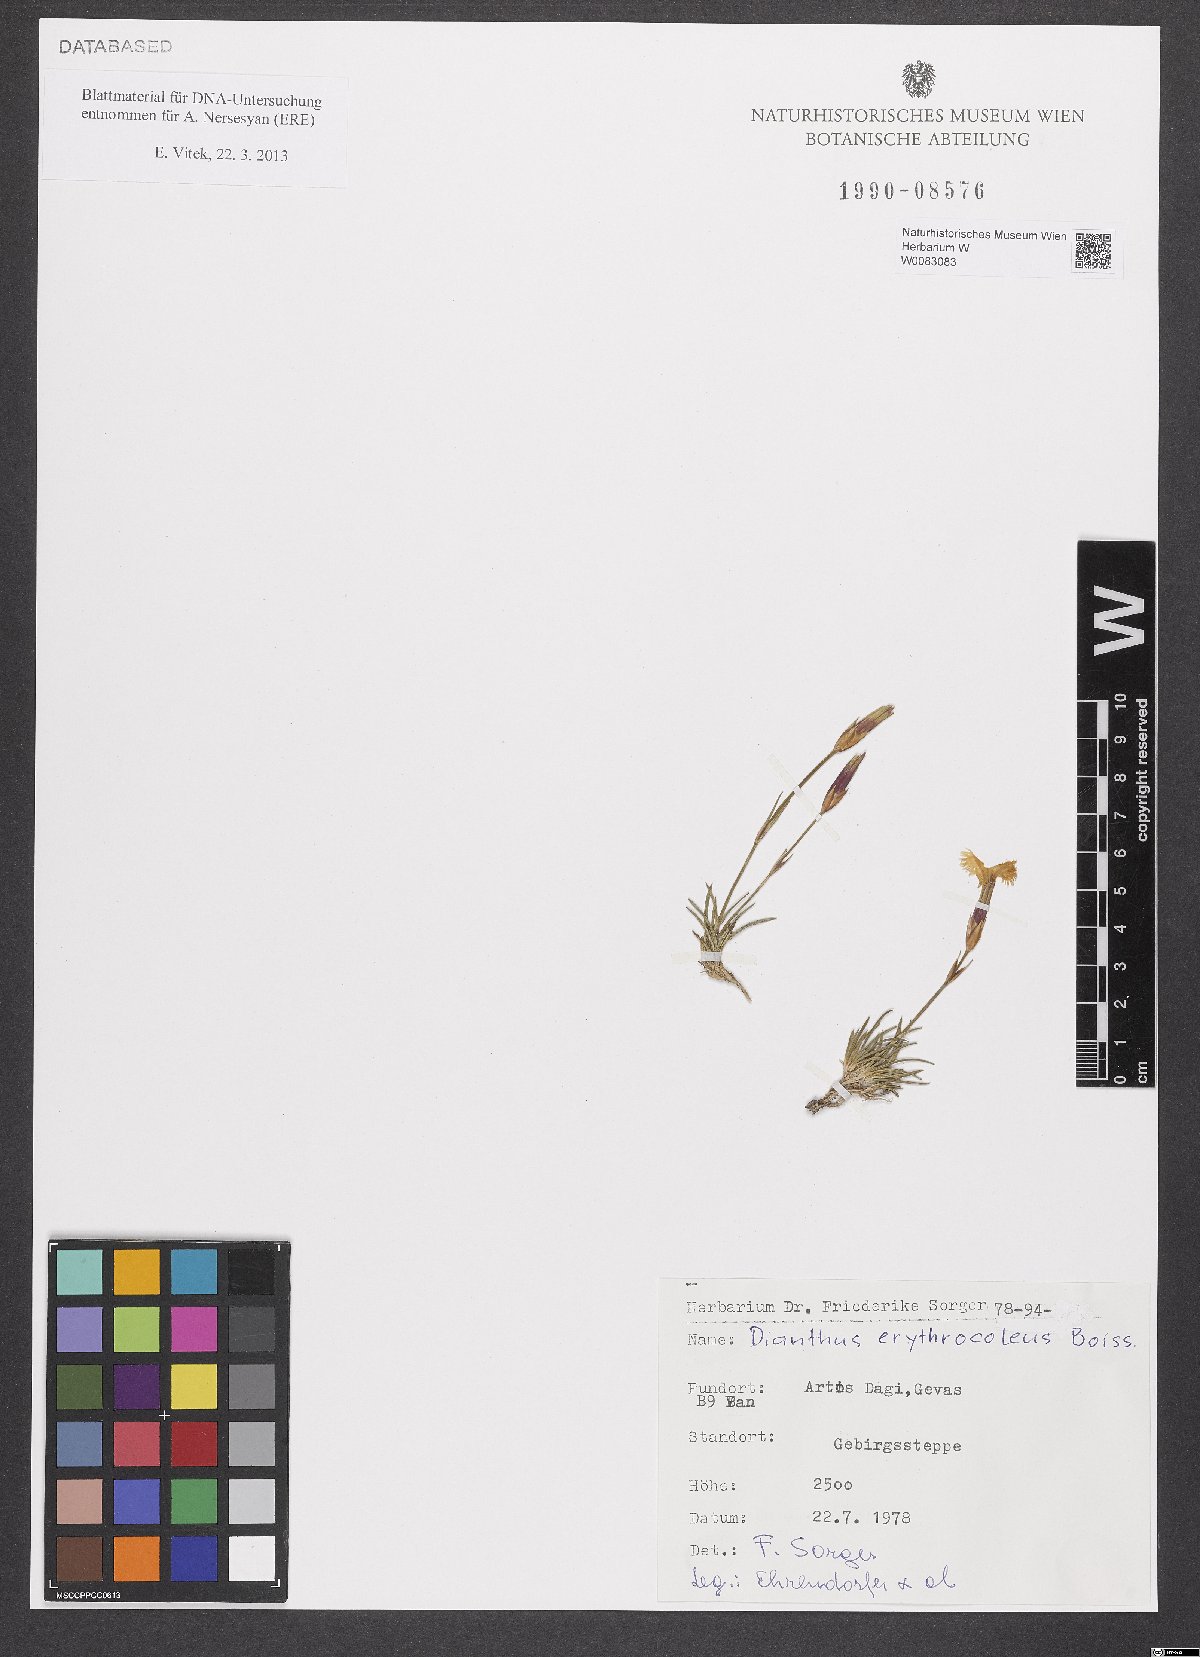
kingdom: Plantae
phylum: Tracheophyta
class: Magnoliopsida
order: Caryophyllales
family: Caryophyllaceae
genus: Dianthus
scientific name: Dianthus erythrocoleus
